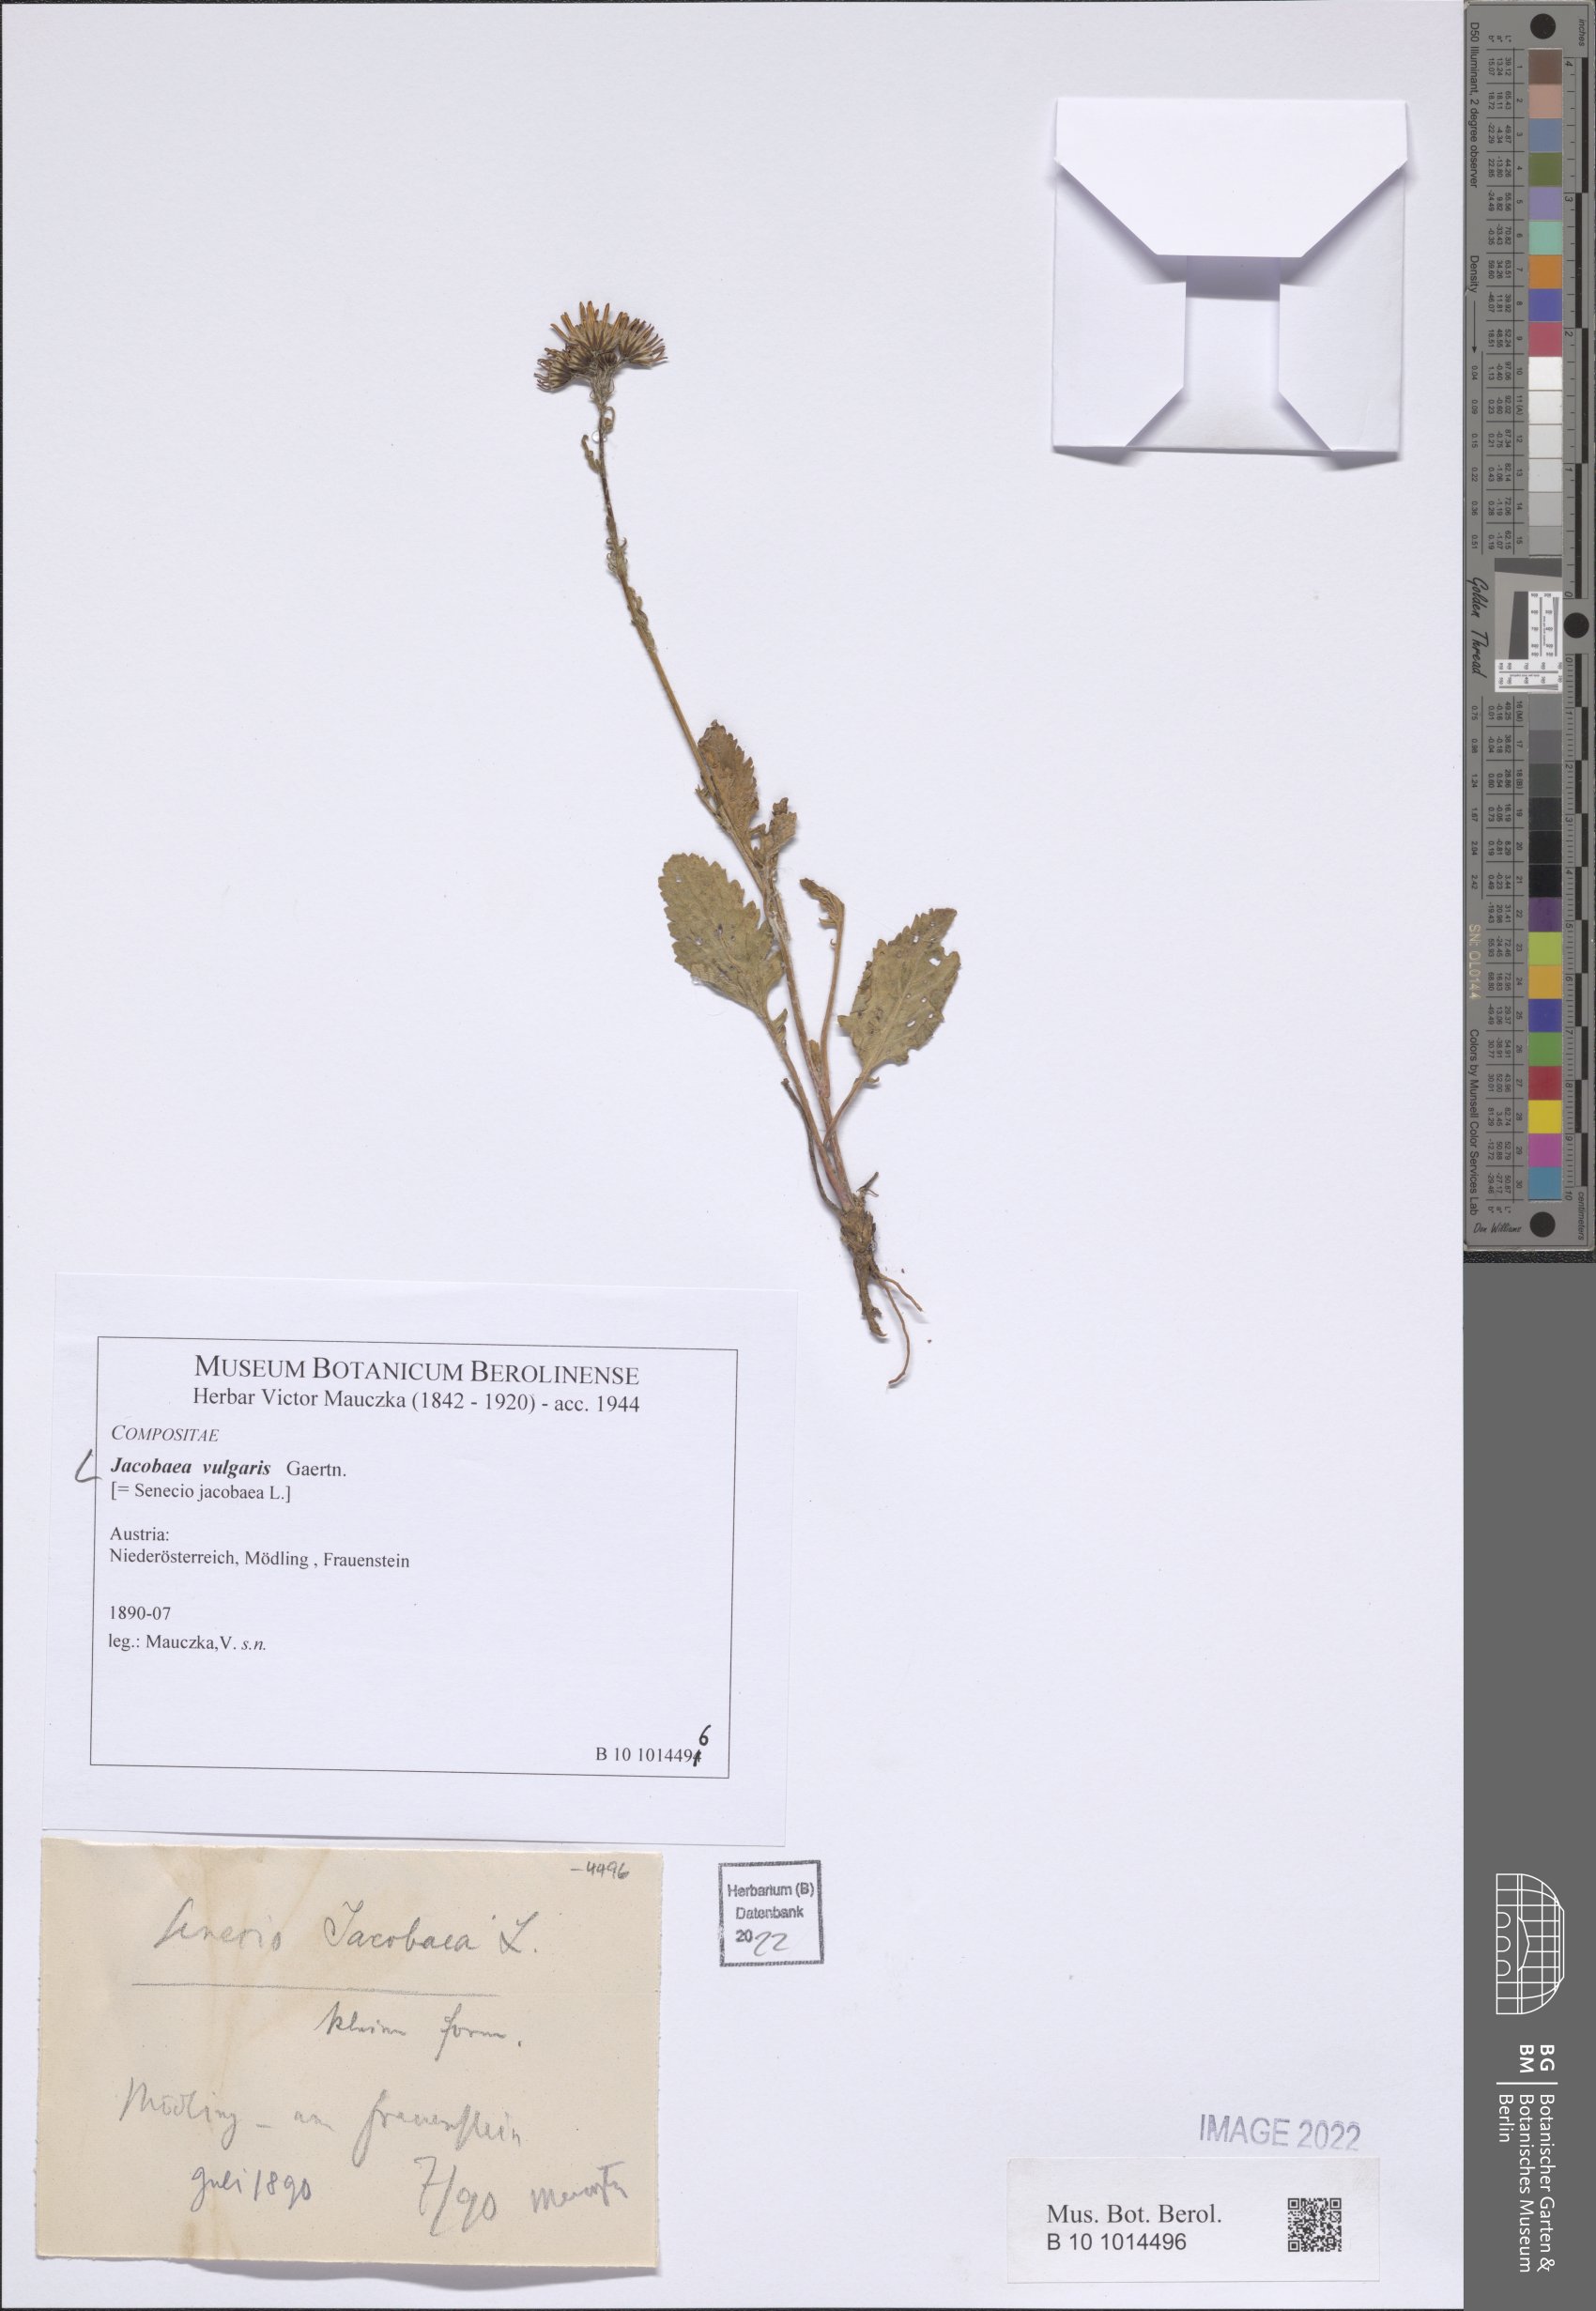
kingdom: Plantae
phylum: Tracheophyta
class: Magnoliopsida
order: Asterales
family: Asteraceae
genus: Jacobaea
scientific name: Jacobaea vulgaris
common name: Stinking willie
